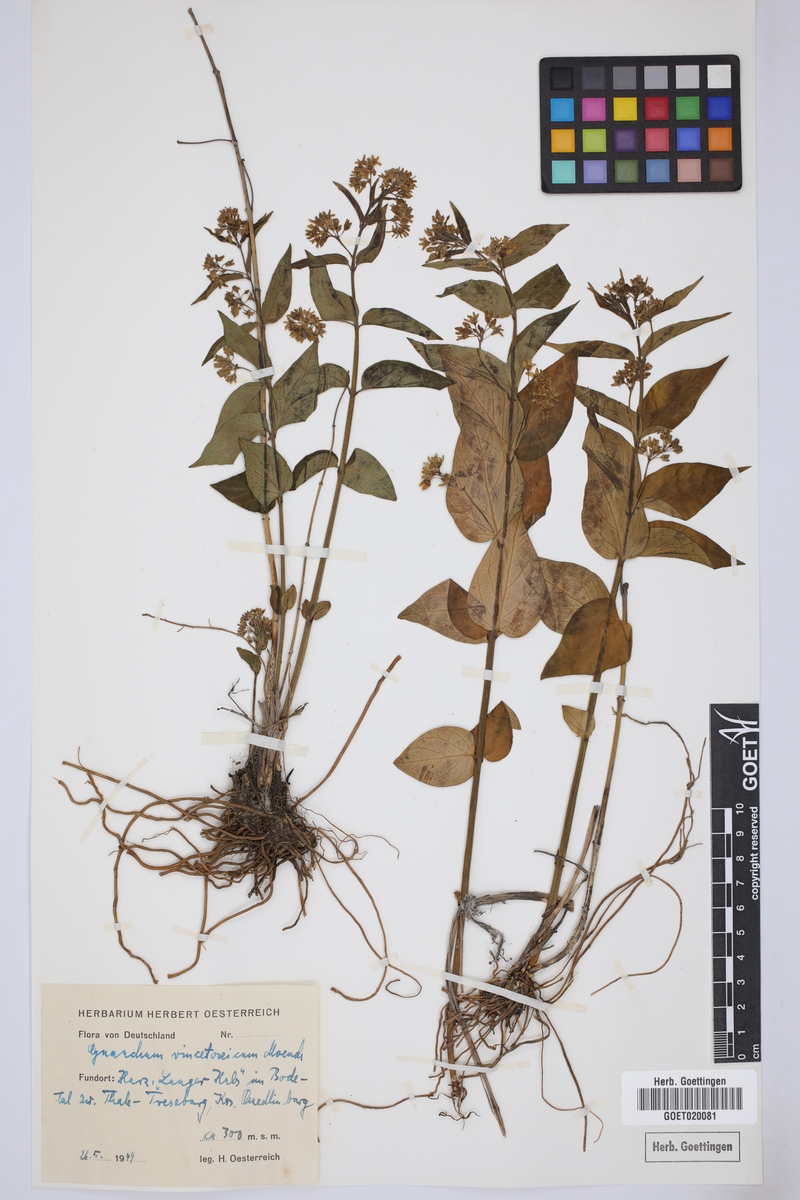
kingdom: Plantae
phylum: Tracheophyta
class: Magnoliopsida
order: Gentianales
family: Apocynaceae
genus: Vincetoxicum
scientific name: Vincetoxicum hirundinaria
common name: White swallowwort
